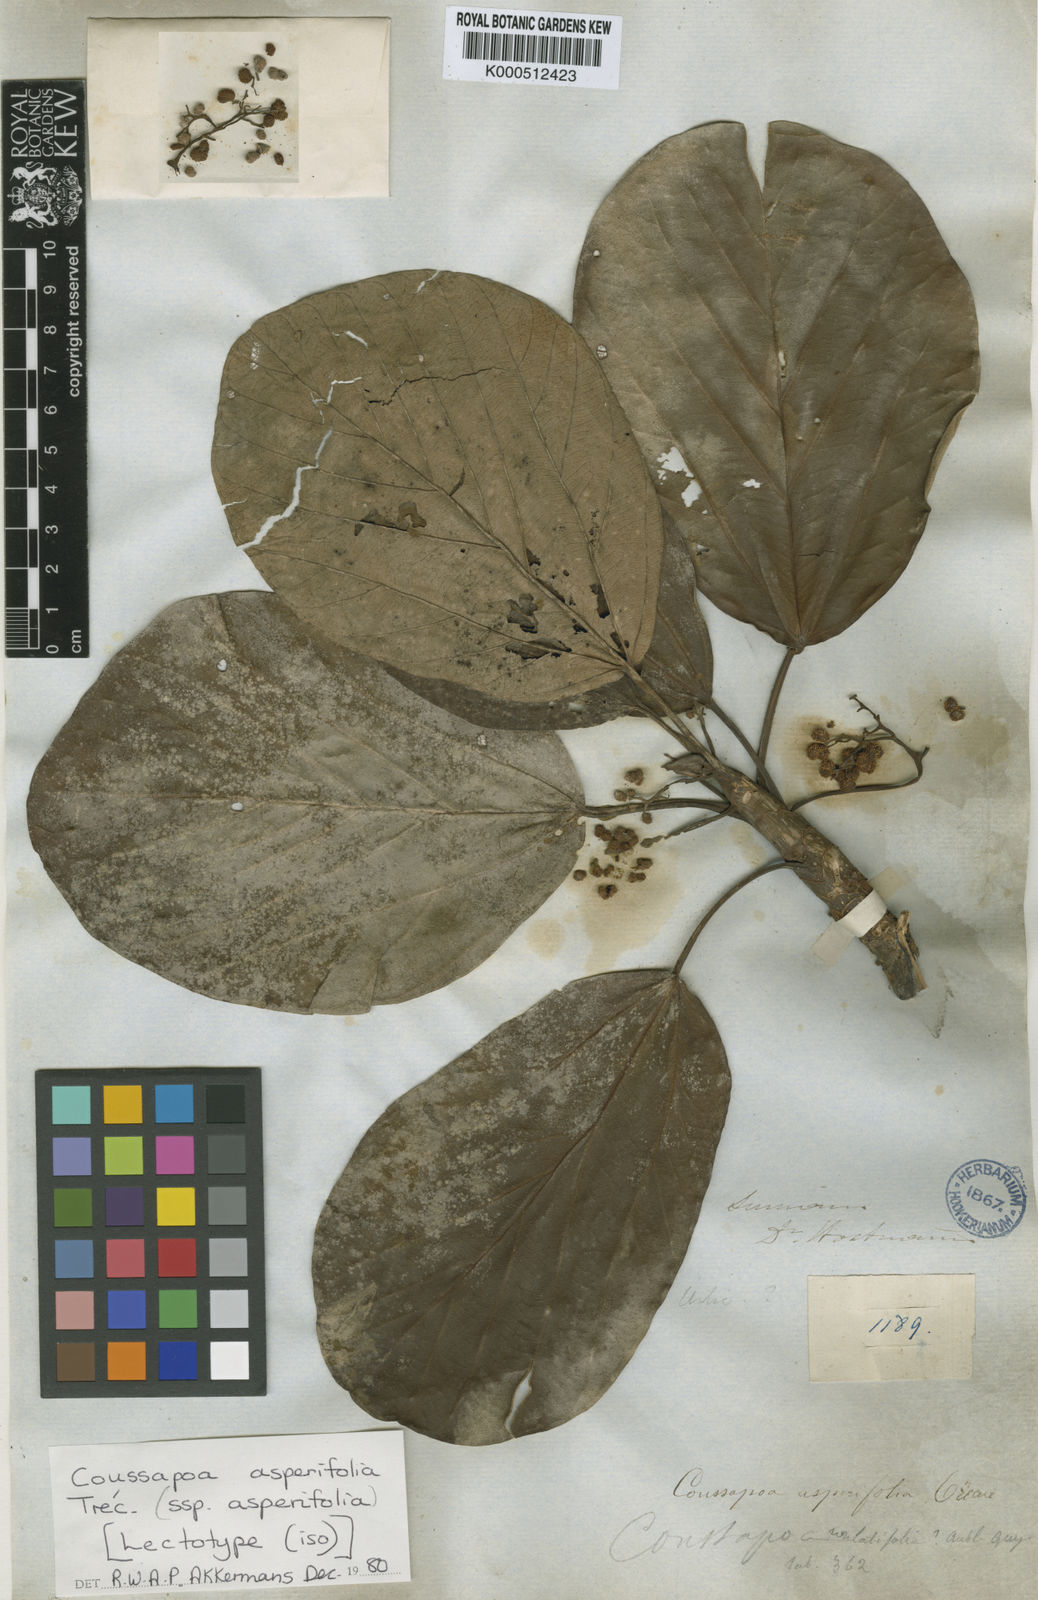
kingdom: Plantae
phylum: Tracheophyta
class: Magnoliopsida
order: Rosales
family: Urticaceae
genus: Coussapoa
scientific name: Coussapoa
